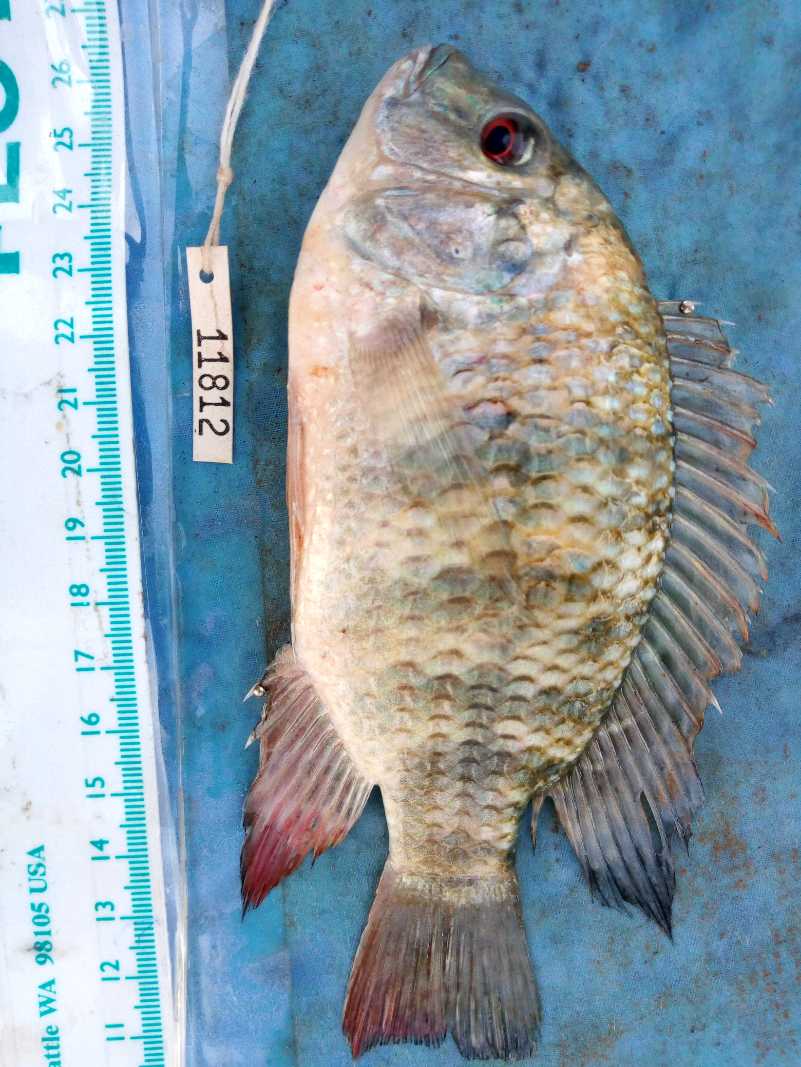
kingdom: Animalia
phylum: Chordata
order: Perciformes
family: Cichlidae
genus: Coptodon
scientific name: Coptodon rendalli
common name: Redbreast tilapia
